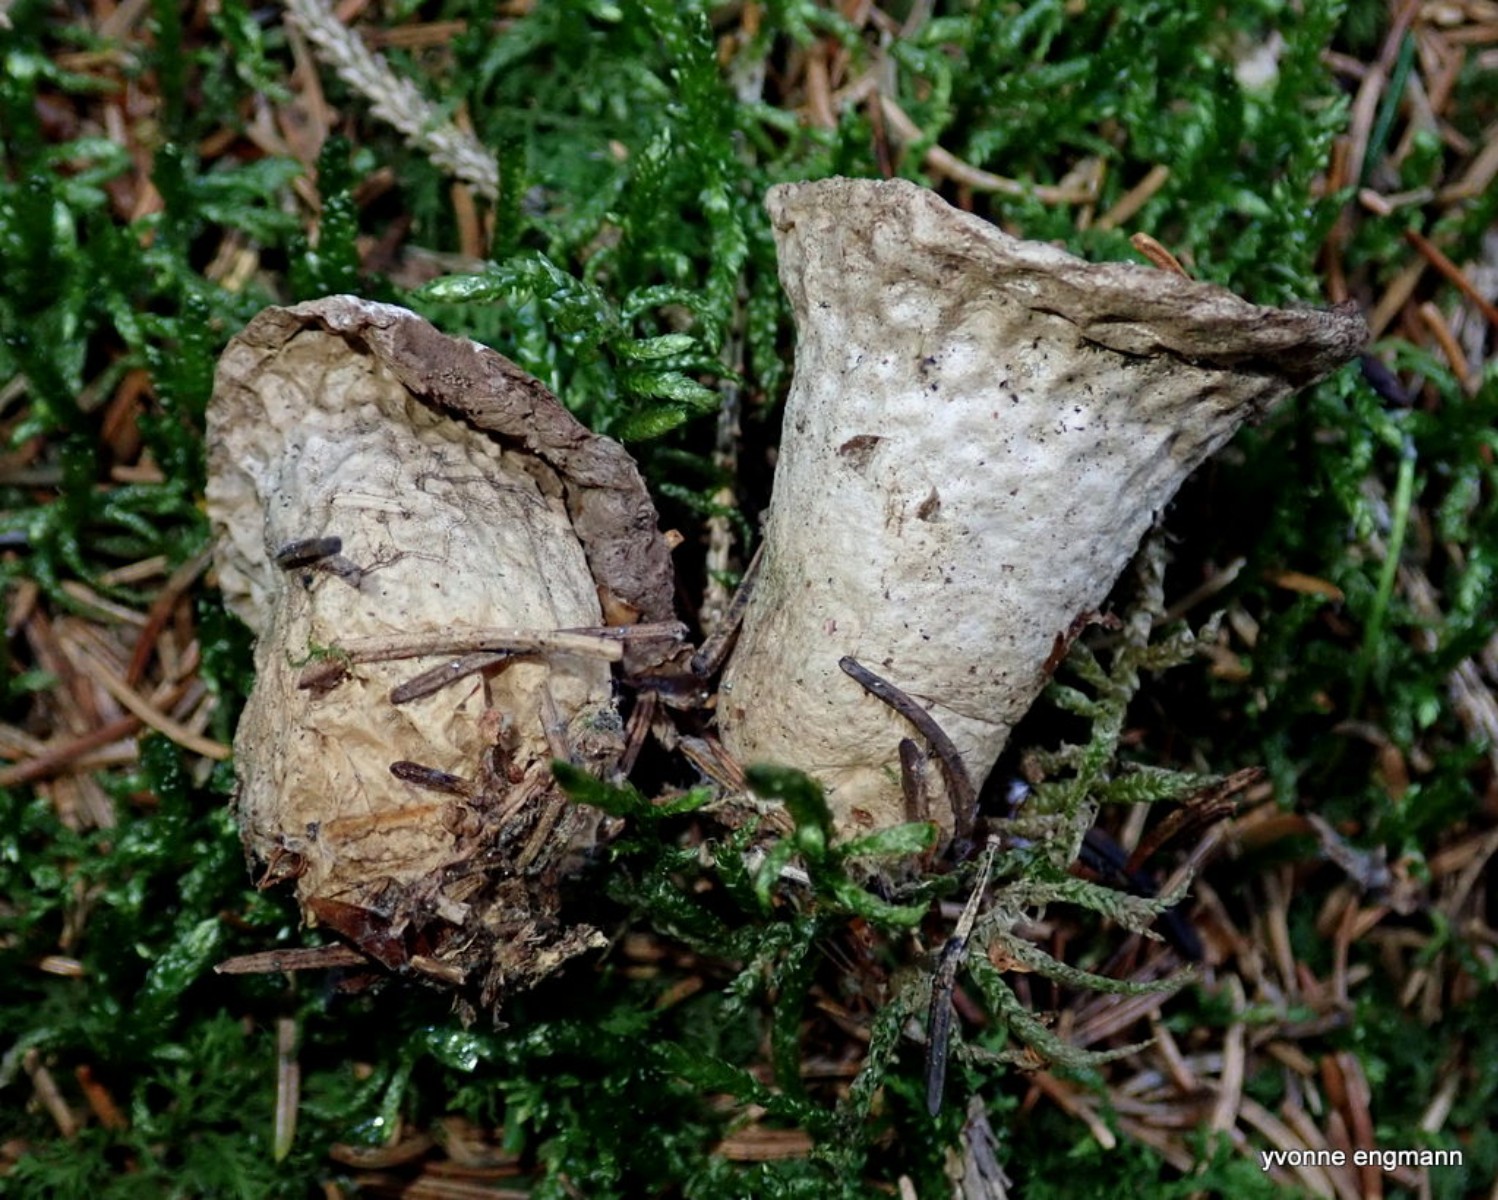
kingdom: Fungi
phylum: Basidiomycota
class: Agaricomycetes
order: Agaricales
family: Lycoperdaceae
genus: Lycoperdon
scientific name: Lycoperdon excipuliforme
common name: højstokket støvbold
